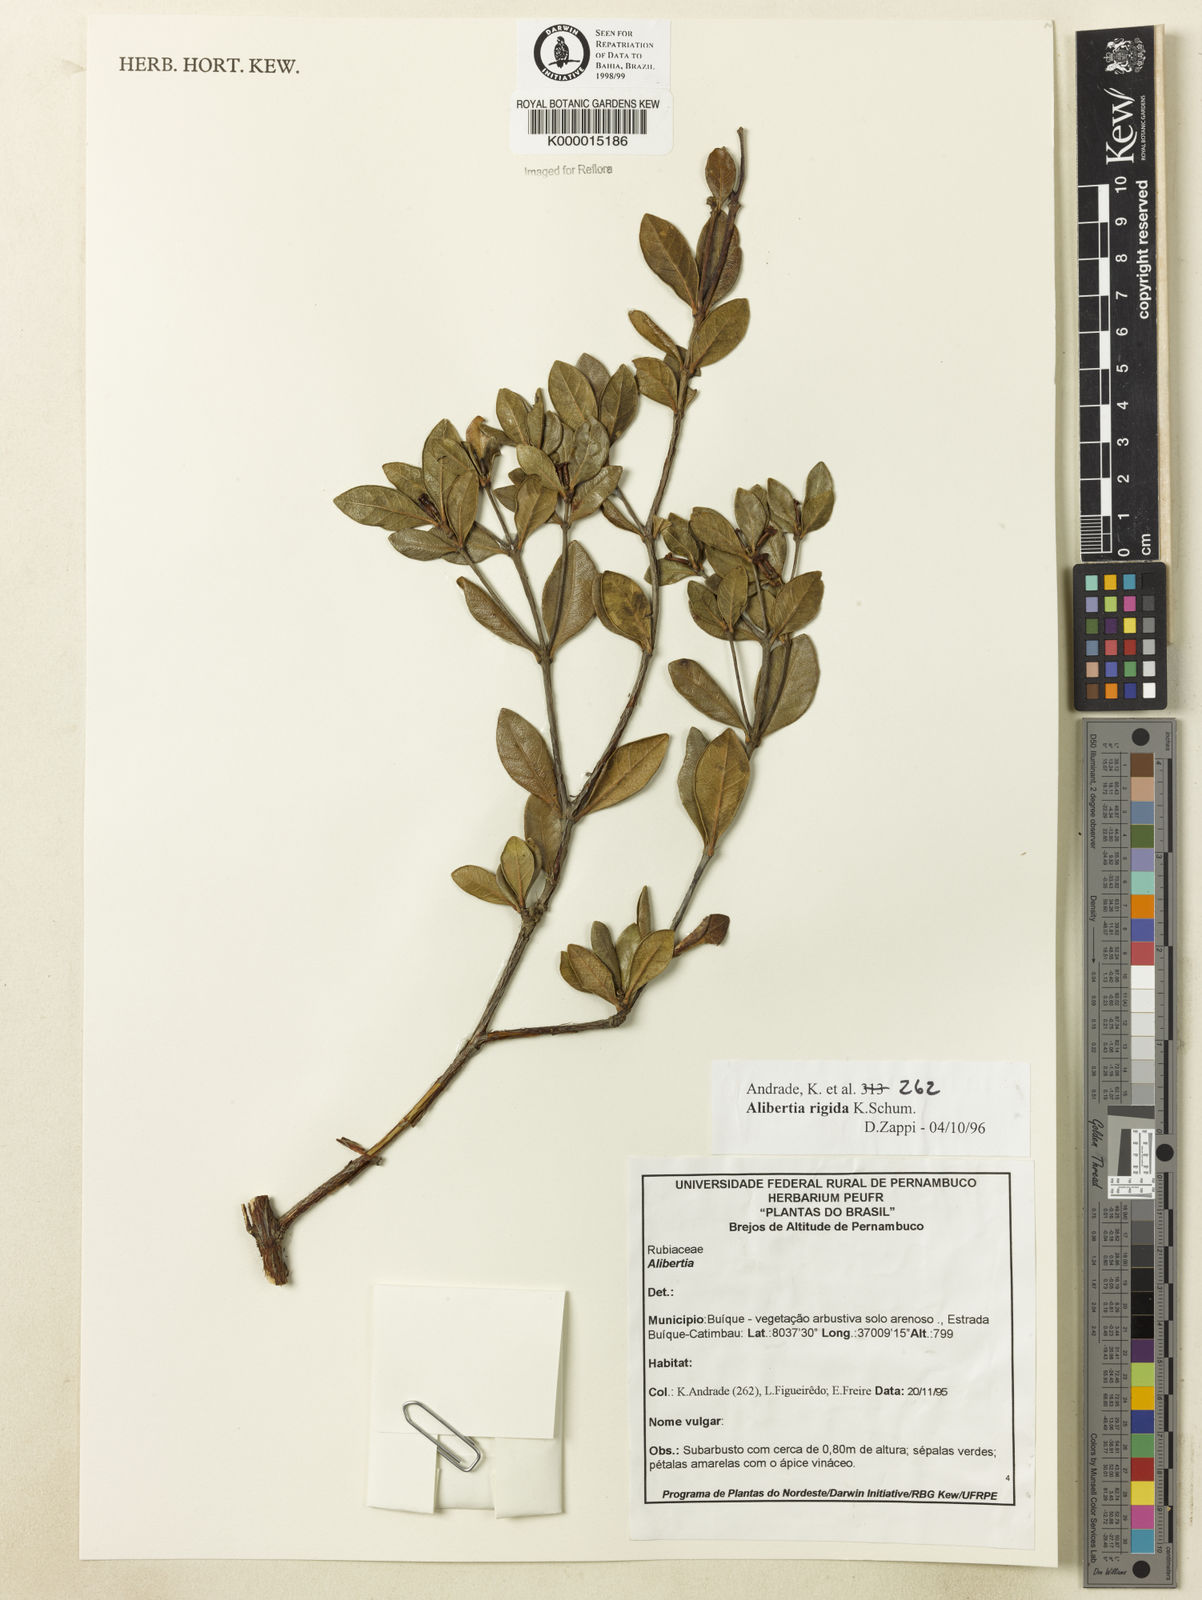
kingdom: Plantae
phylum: Tracheophyta
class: Magnoliopsida
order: Gentianales
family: Rubiaceae
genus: Cordiera
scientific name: Cordiera rigida
